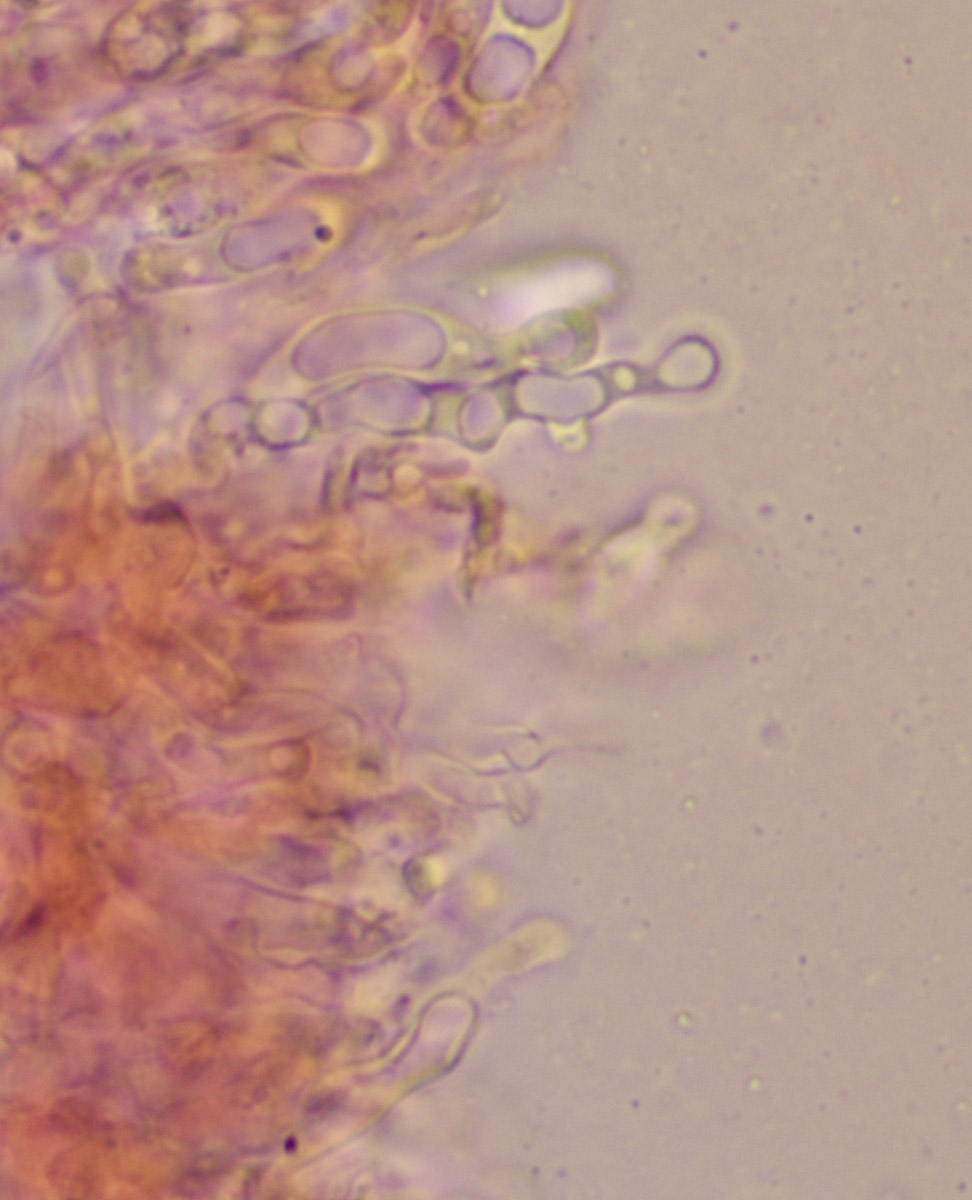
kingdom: Fungi
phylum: Basidiomycota
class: Agaricomycetes
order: Agaricales
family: Mycenaceae
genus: Hemimycena
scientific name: Hemimycena lactea
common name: mælkehvid huesvamp
